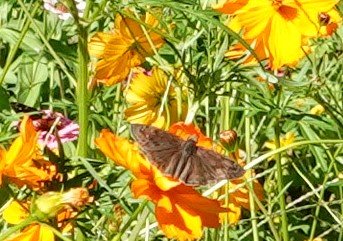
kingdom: Animalia
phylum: Arthropoda
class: Insecta
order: Lepidoptera
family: Hesperiidae
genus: Erynnis
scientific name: Erynnis zarucco
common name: Zarucco Duskywing
